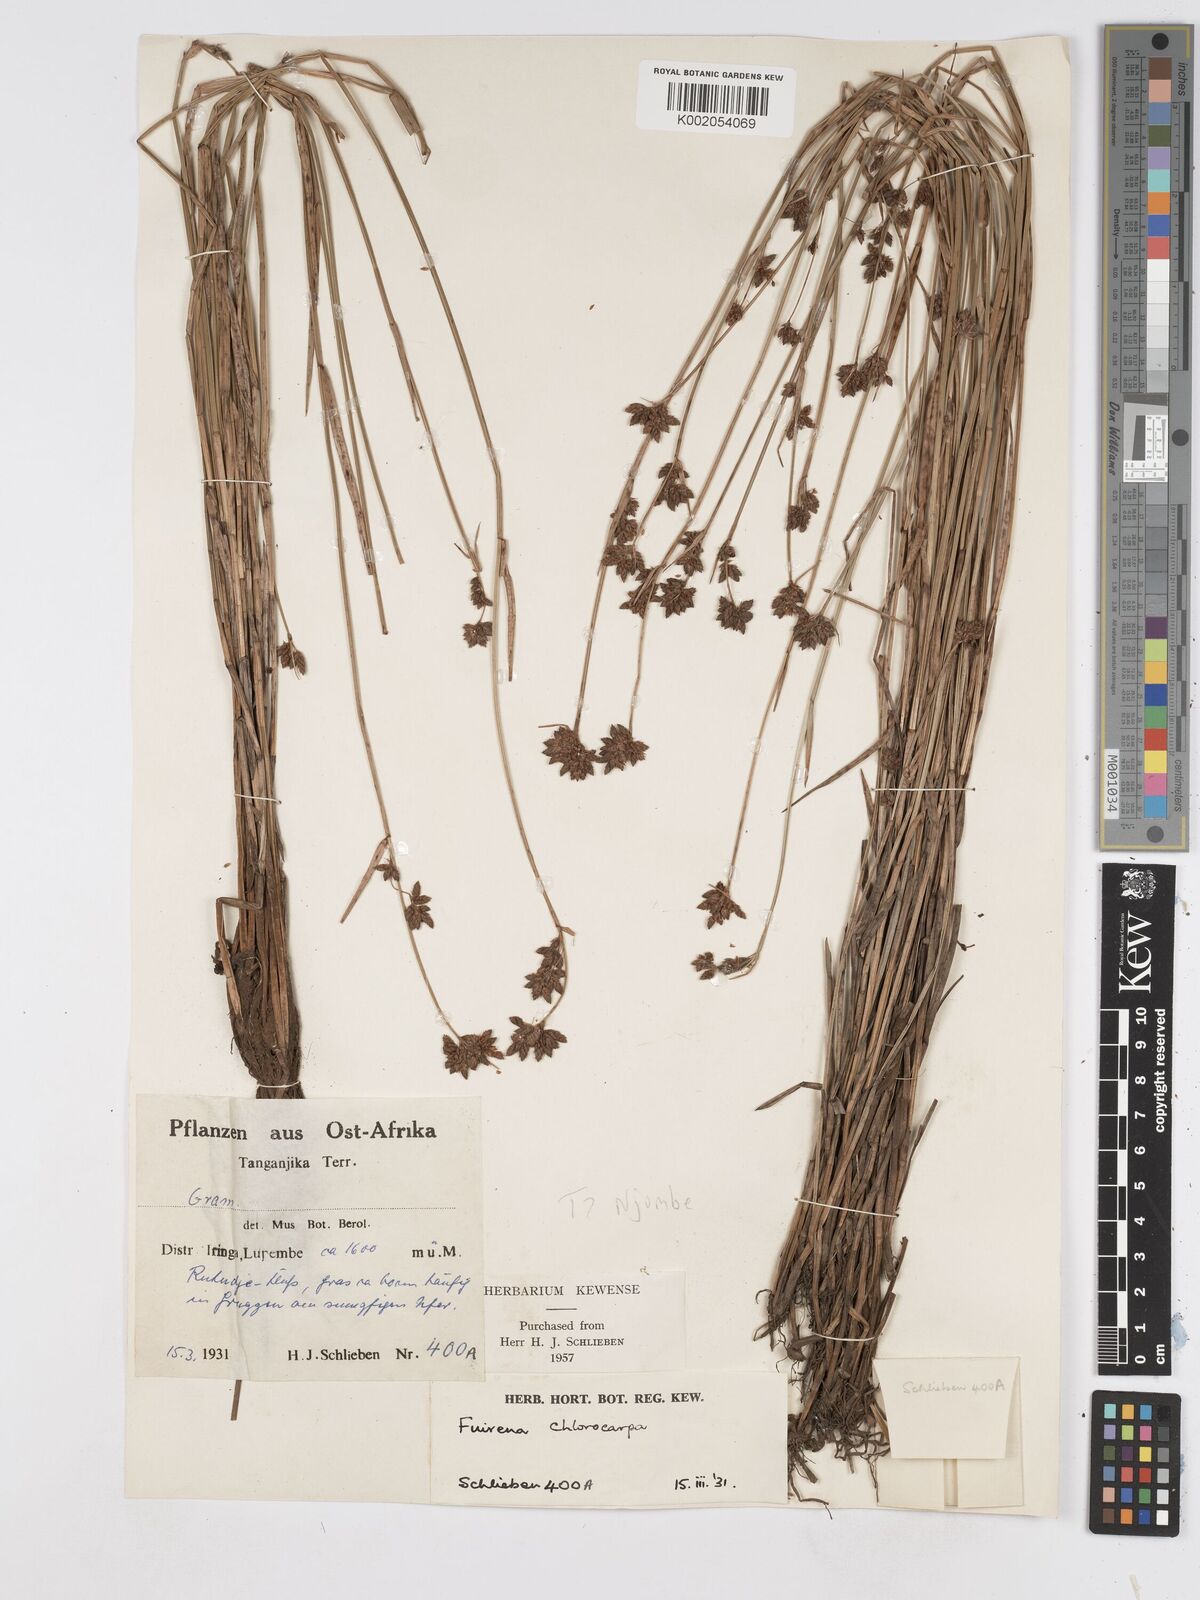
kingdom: Plantae
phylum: Tracheophyta
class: Liliopsida
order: Poales
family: Cyperaceae
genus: Fuirena
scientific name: Fuirena stricta
